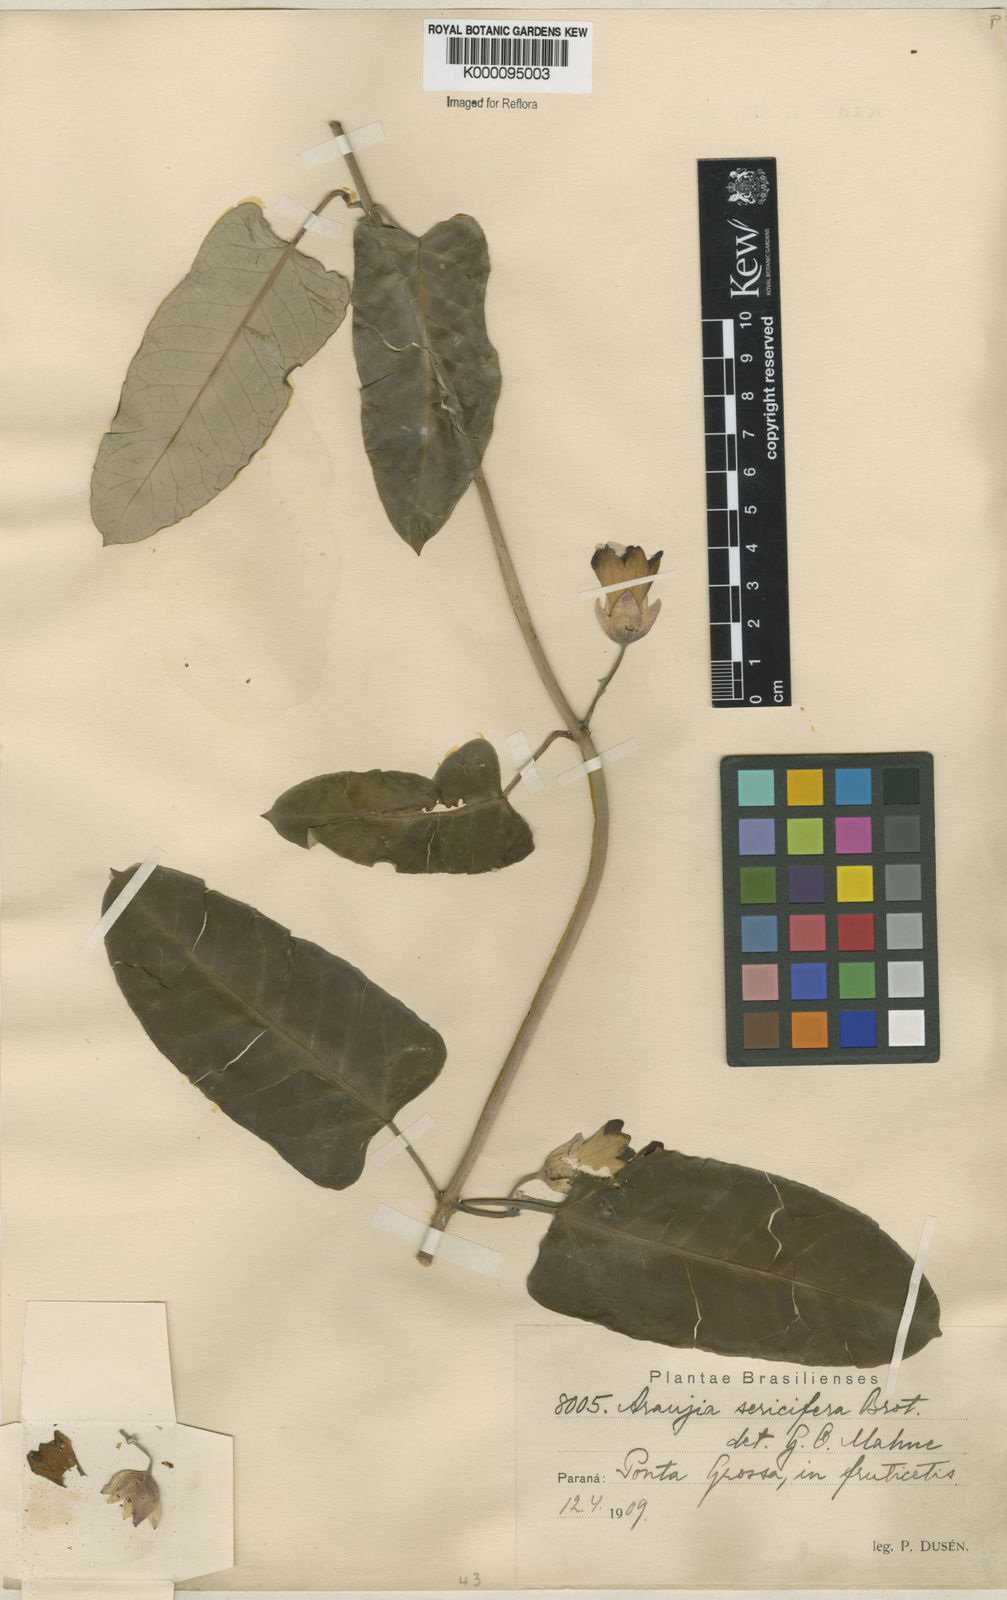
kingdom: Plantae
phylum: Tracheophyta
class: Magnoliopsida
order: Gentianales
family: Apocynaceae
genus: Araujia
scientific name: Araujia sericifera
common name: White bladderflower
